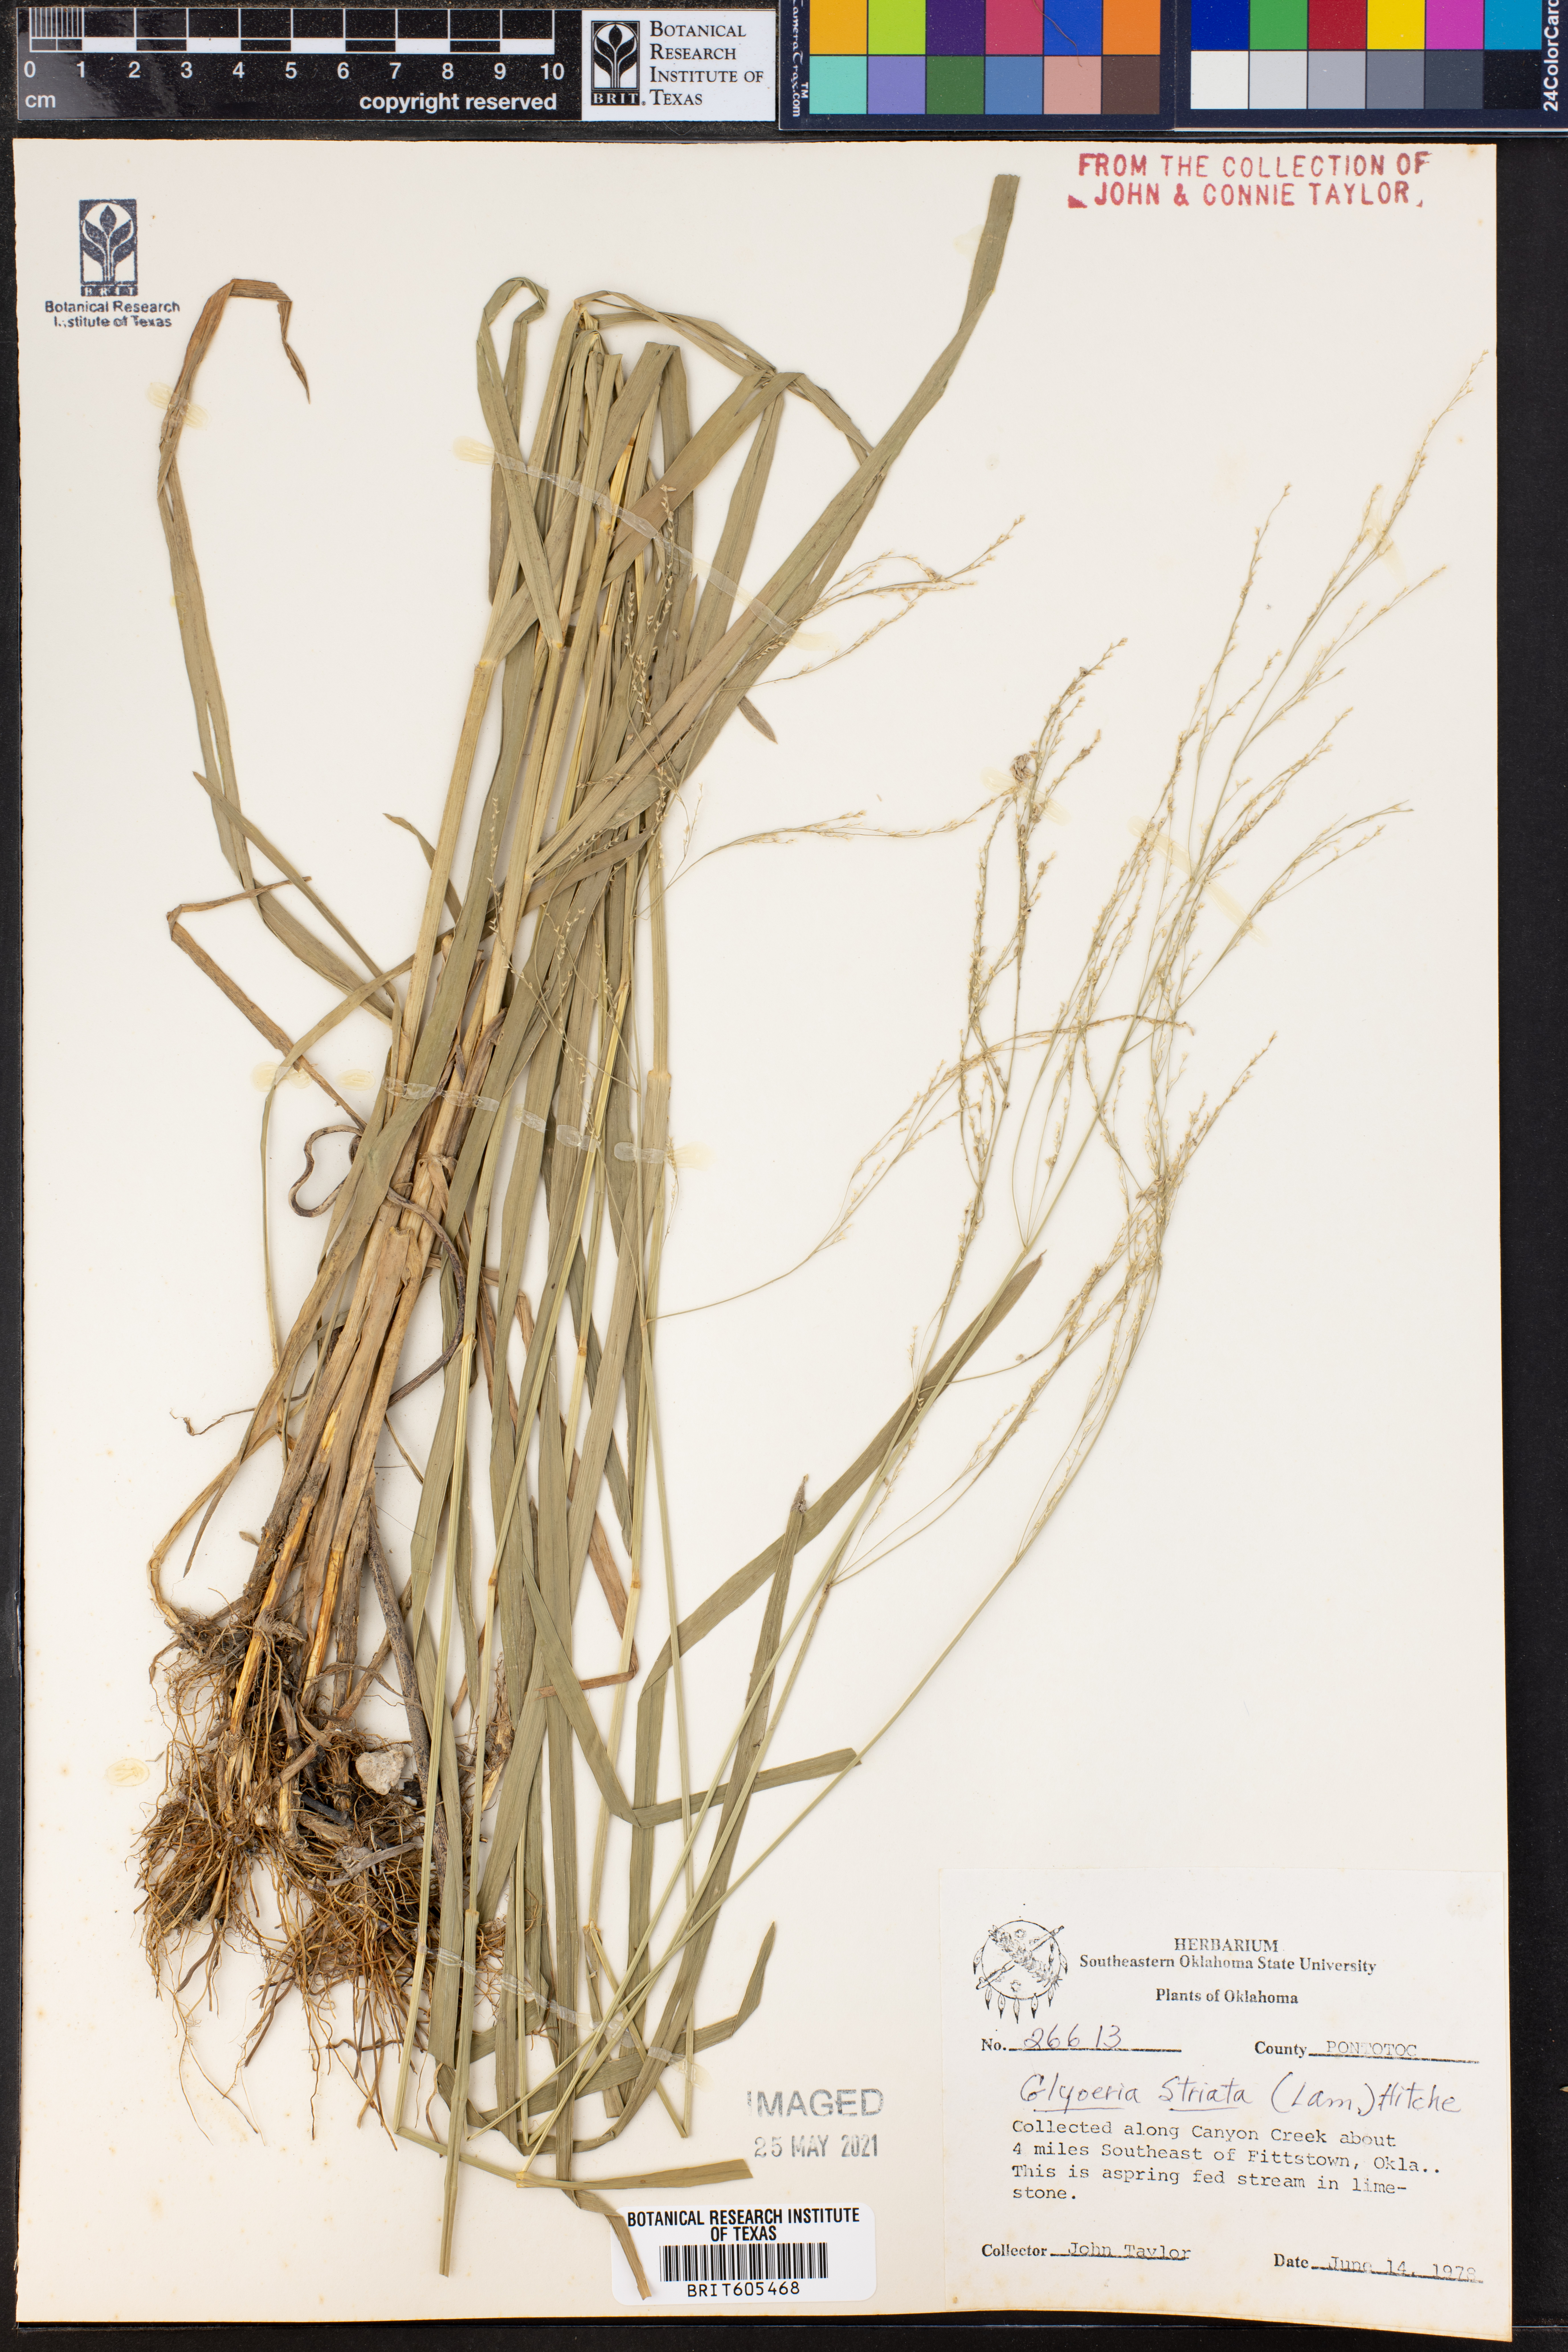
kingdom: Plantae
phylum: Tracheophyta
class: Liliopsida
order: Poales
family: Poaceae
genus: Glyceria
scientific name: Glyceria striata
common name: Fowl manna grass
